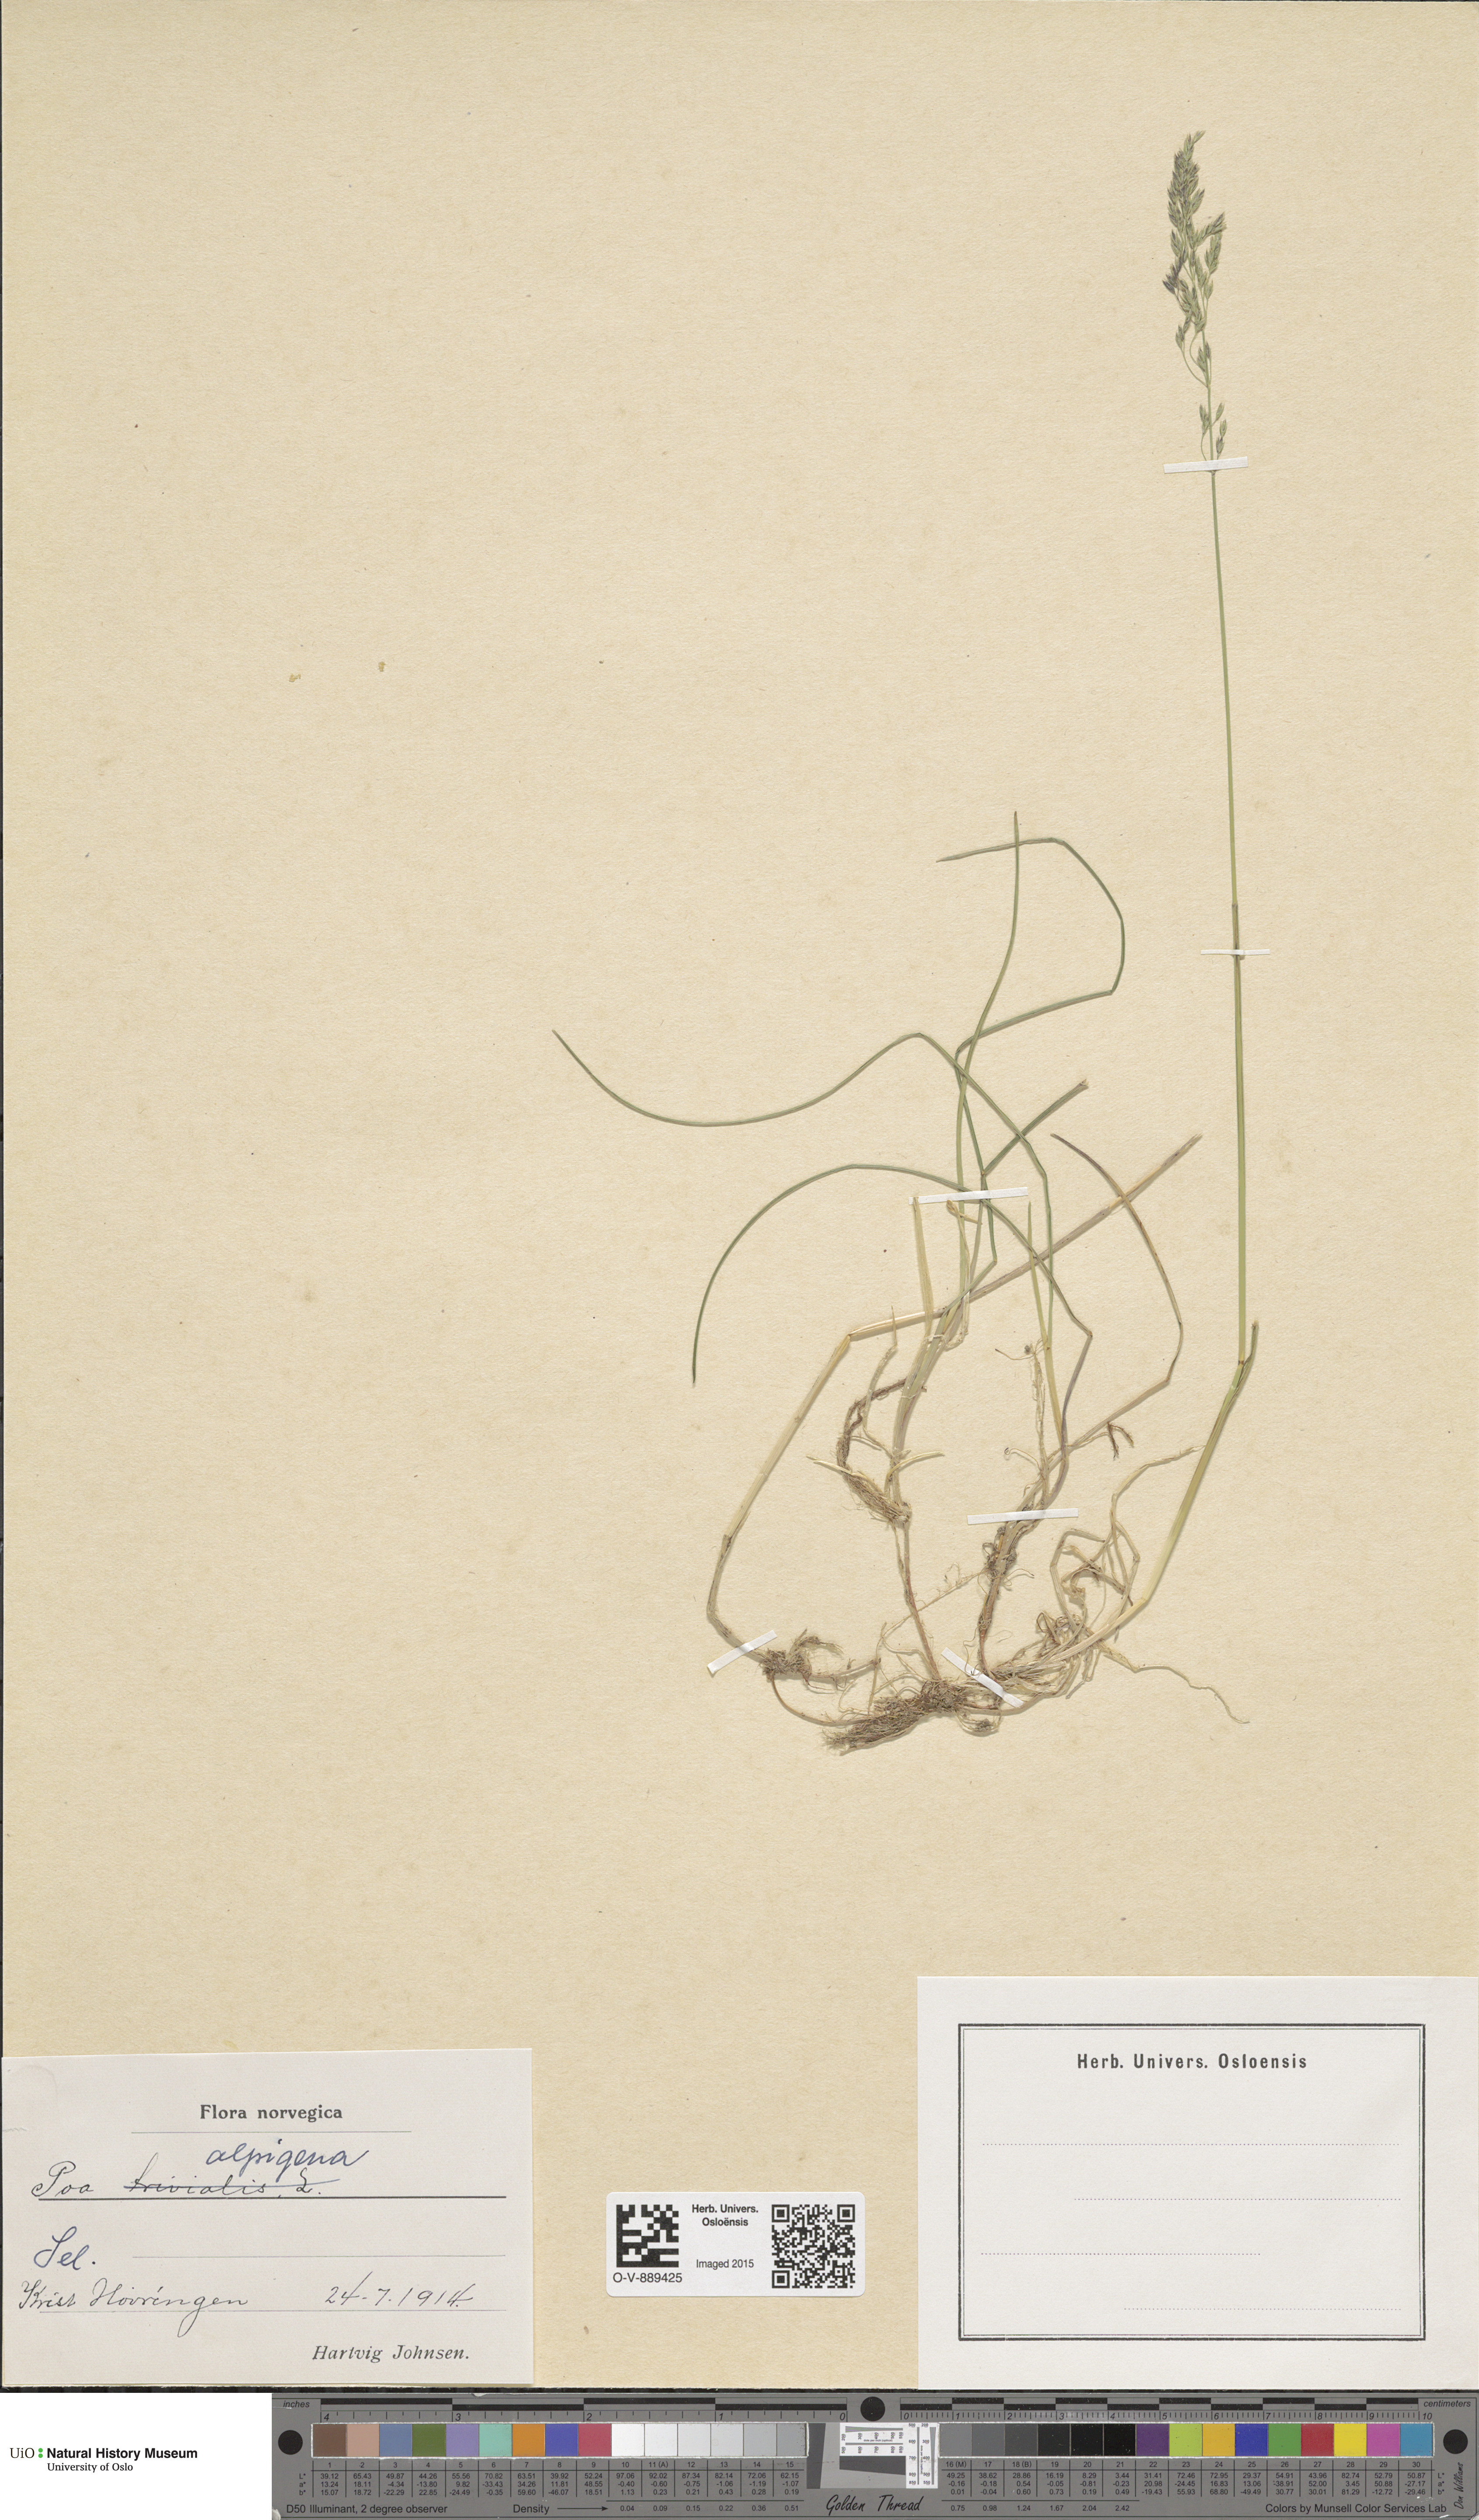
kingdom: Plantae
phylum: Tracheophyta
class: Liliopsida
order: Poales
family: Poaceae
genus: Poa
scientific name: Poa alpigena
